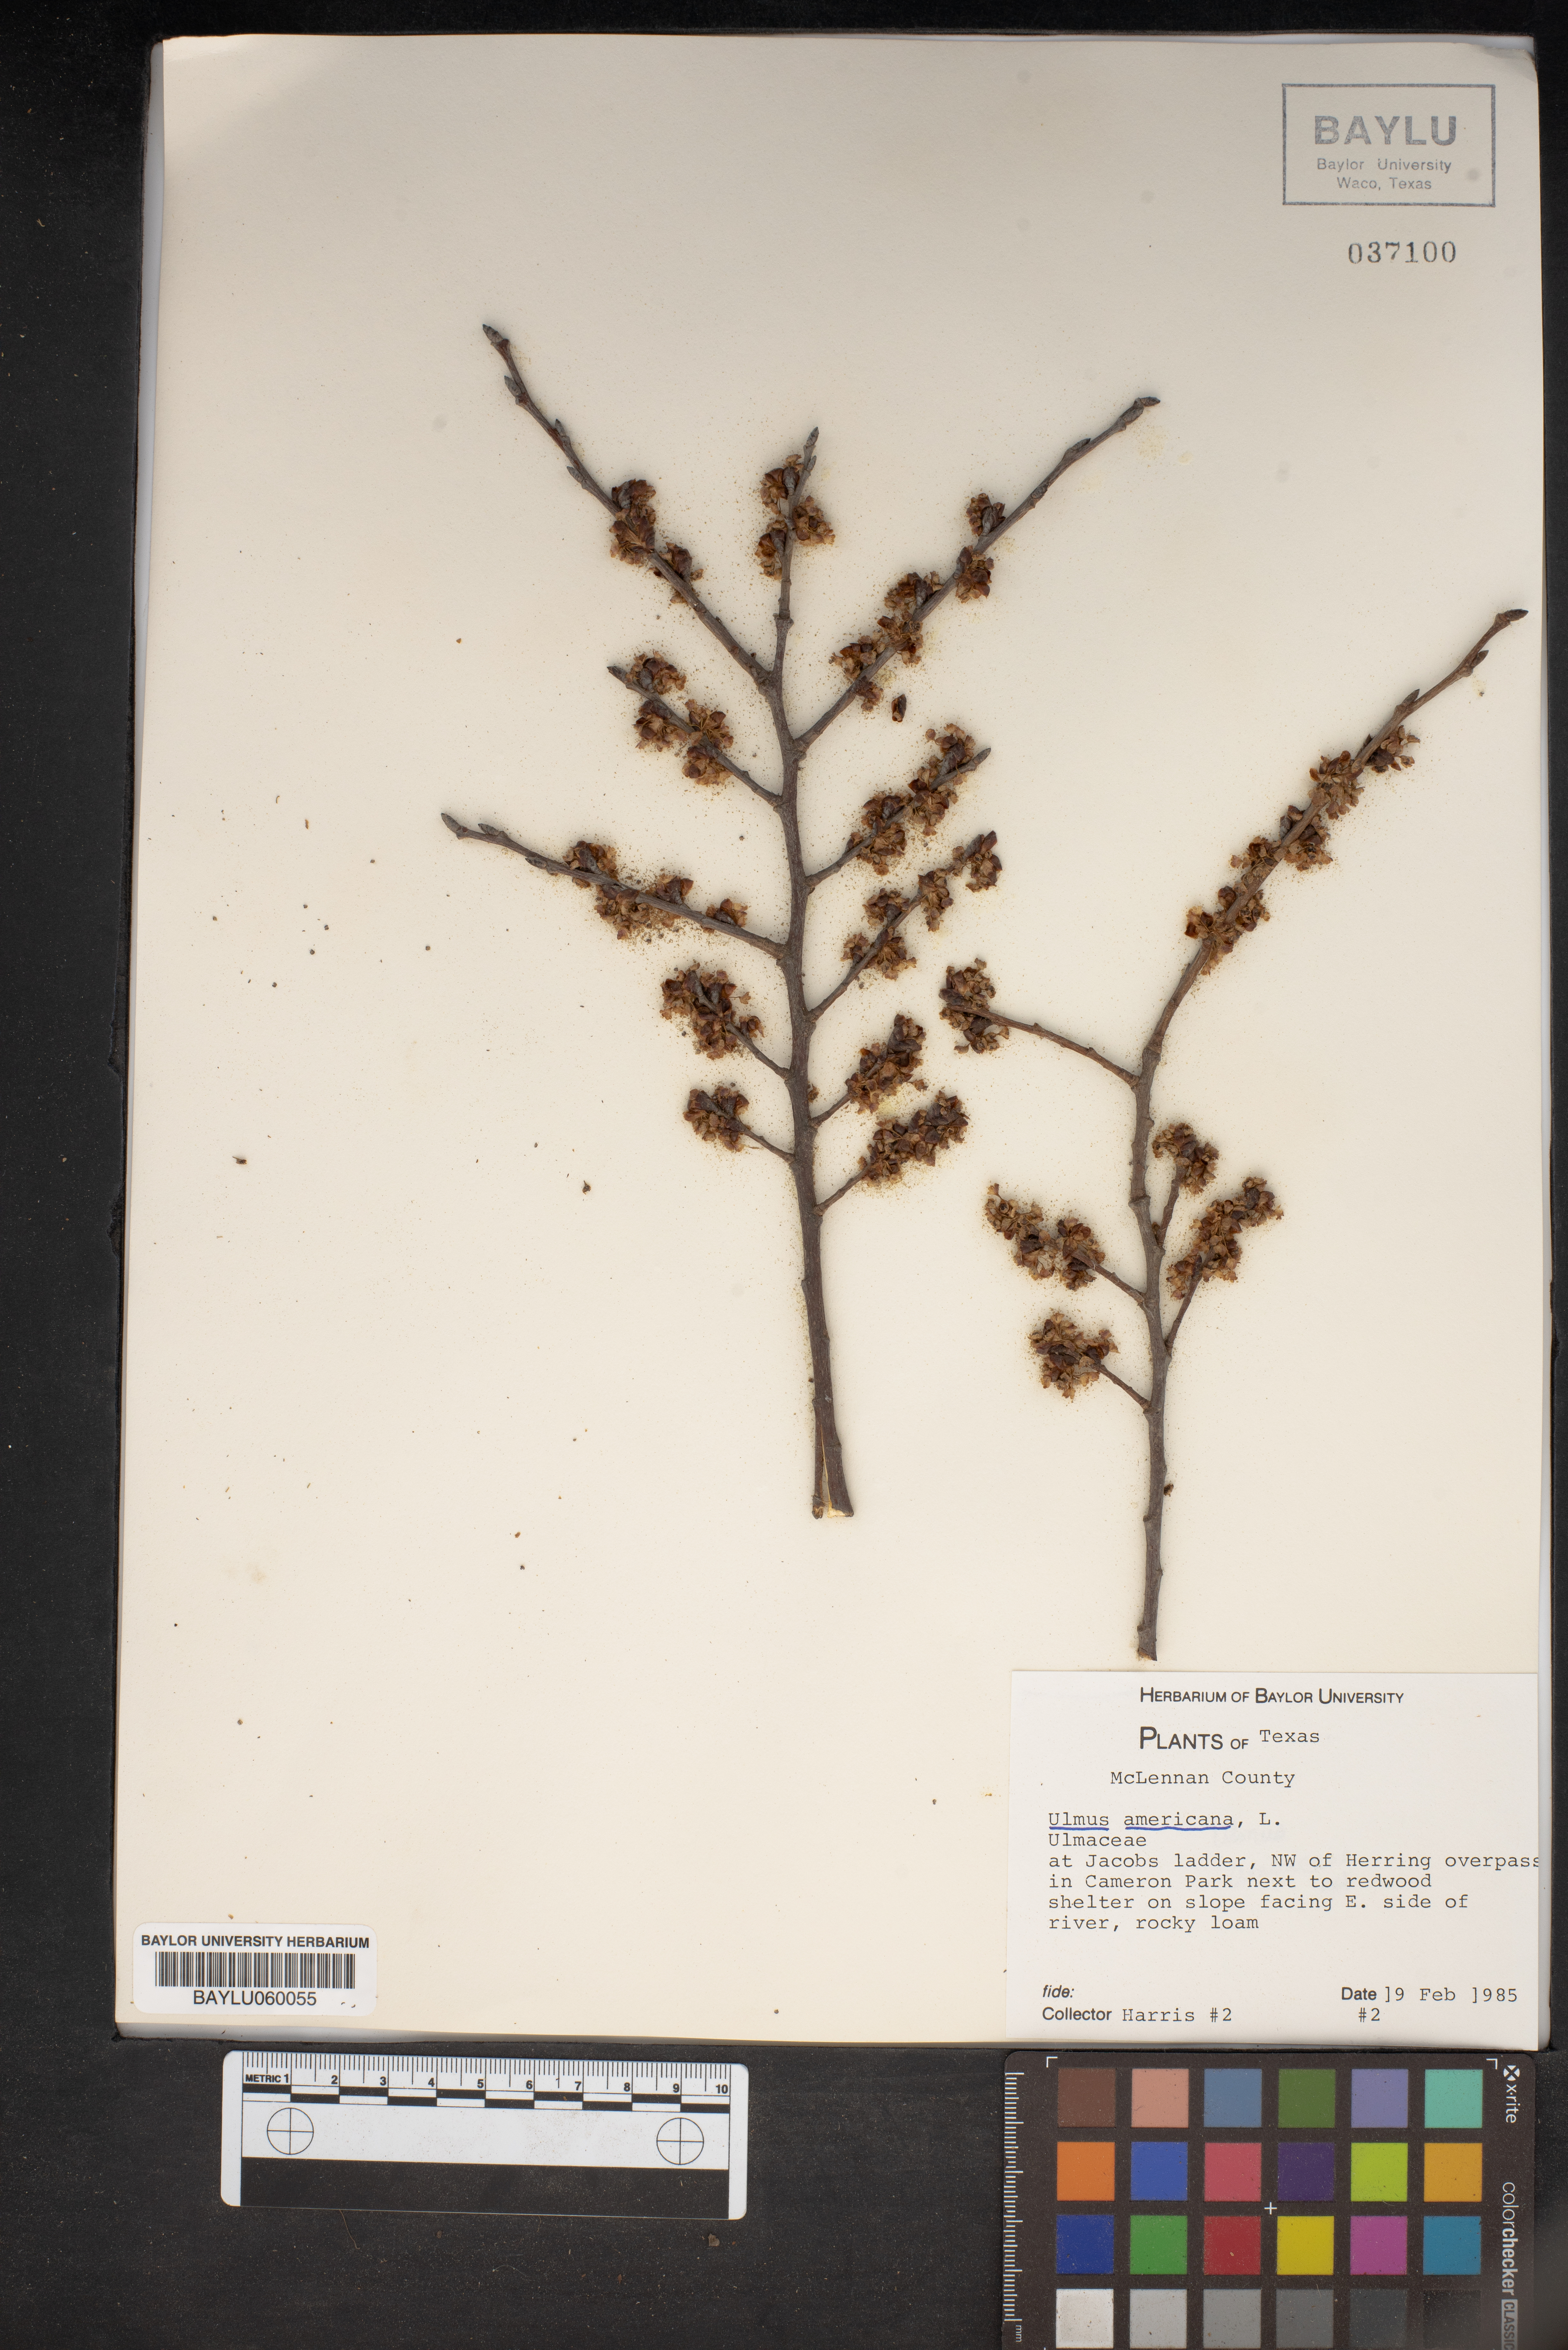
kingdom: Plantae
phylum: Tracheophyta
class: Magnoliopsida
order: Rosales
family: Ulmaceae
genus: Ulmus
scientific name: Ulmus americana
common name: American elm
